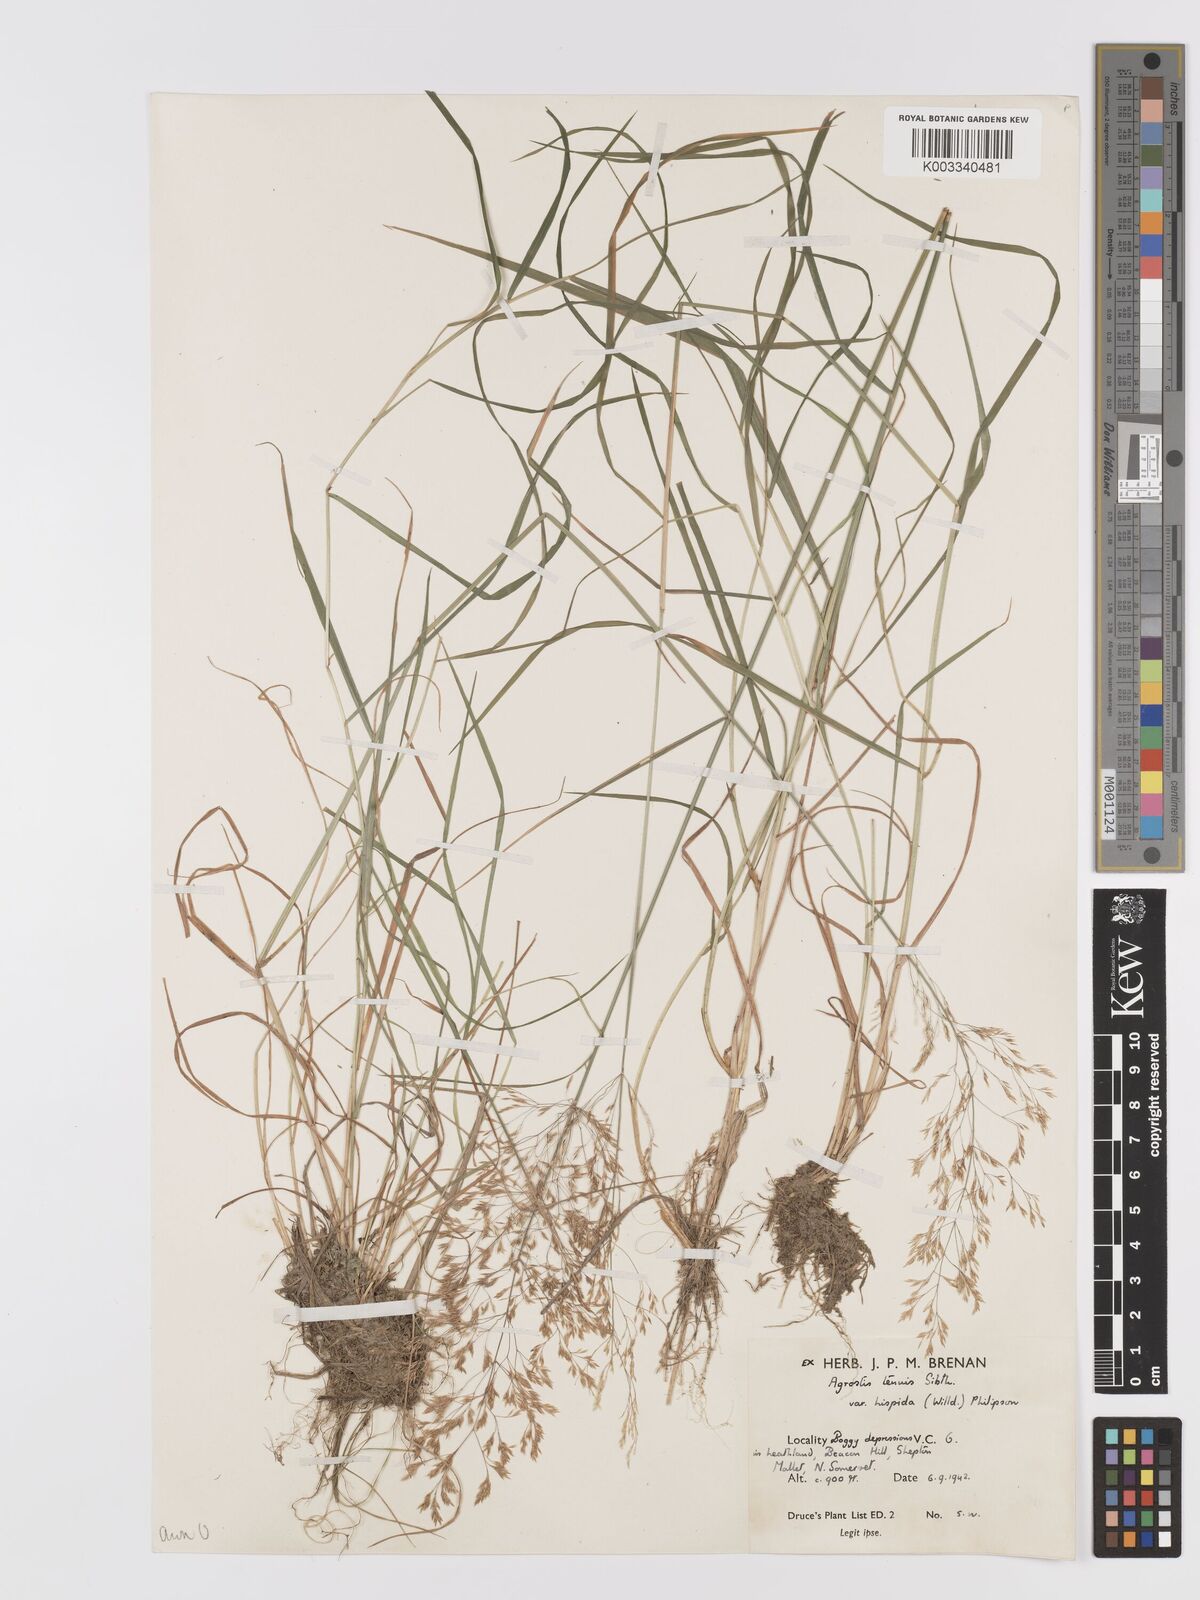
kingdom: Plantae
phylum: Tracheophyta
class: Liliopsida
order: Poales
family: Poaceae
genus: Agrostis
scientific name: Agrostis capillaris
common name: Colonial bentgrass
